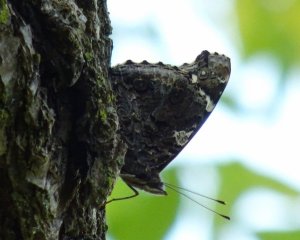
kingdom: Animalia
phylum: Arthropoda
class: Insecta
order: Lepidoptera
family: Nymphalidae
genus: Vanessa
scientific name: Vanessa atalanta
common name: Red Admiral
